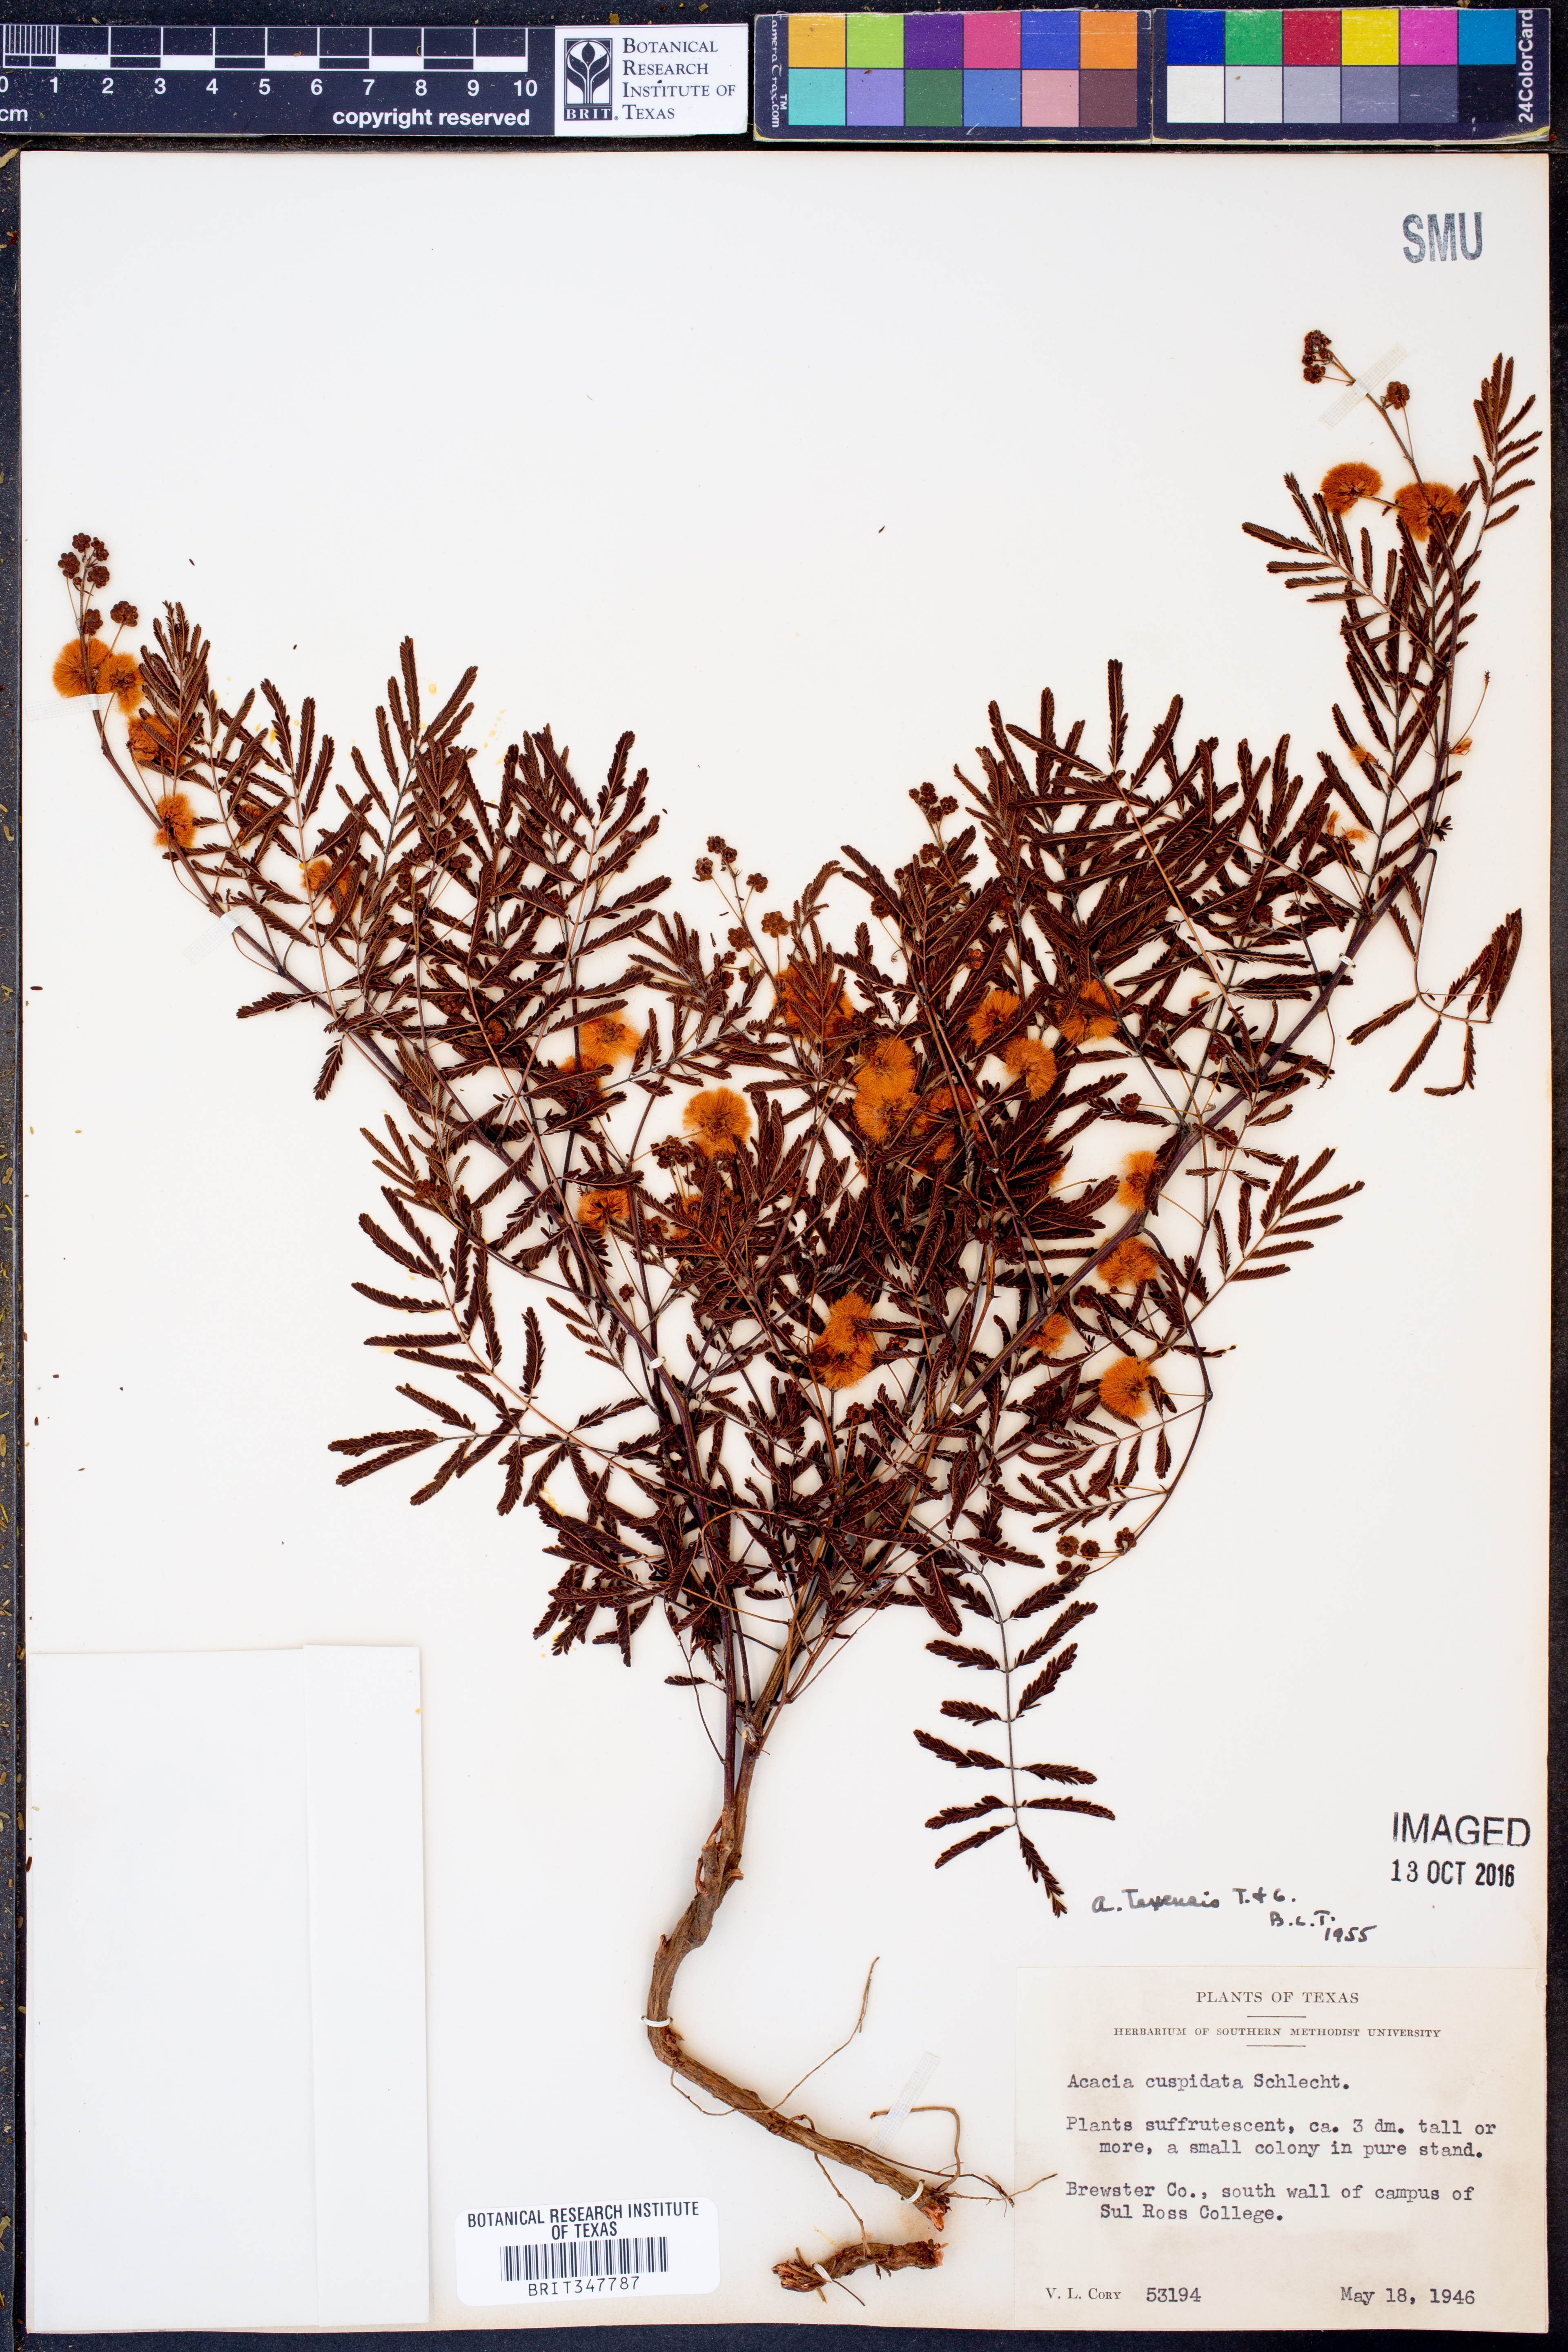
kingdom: Plantae
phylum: Tracheophyta
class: Magnoliopsida
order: Fabales
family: Fabaceae
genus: Acaciella
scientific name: Acaciella angustissima
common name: Prairie acacia
